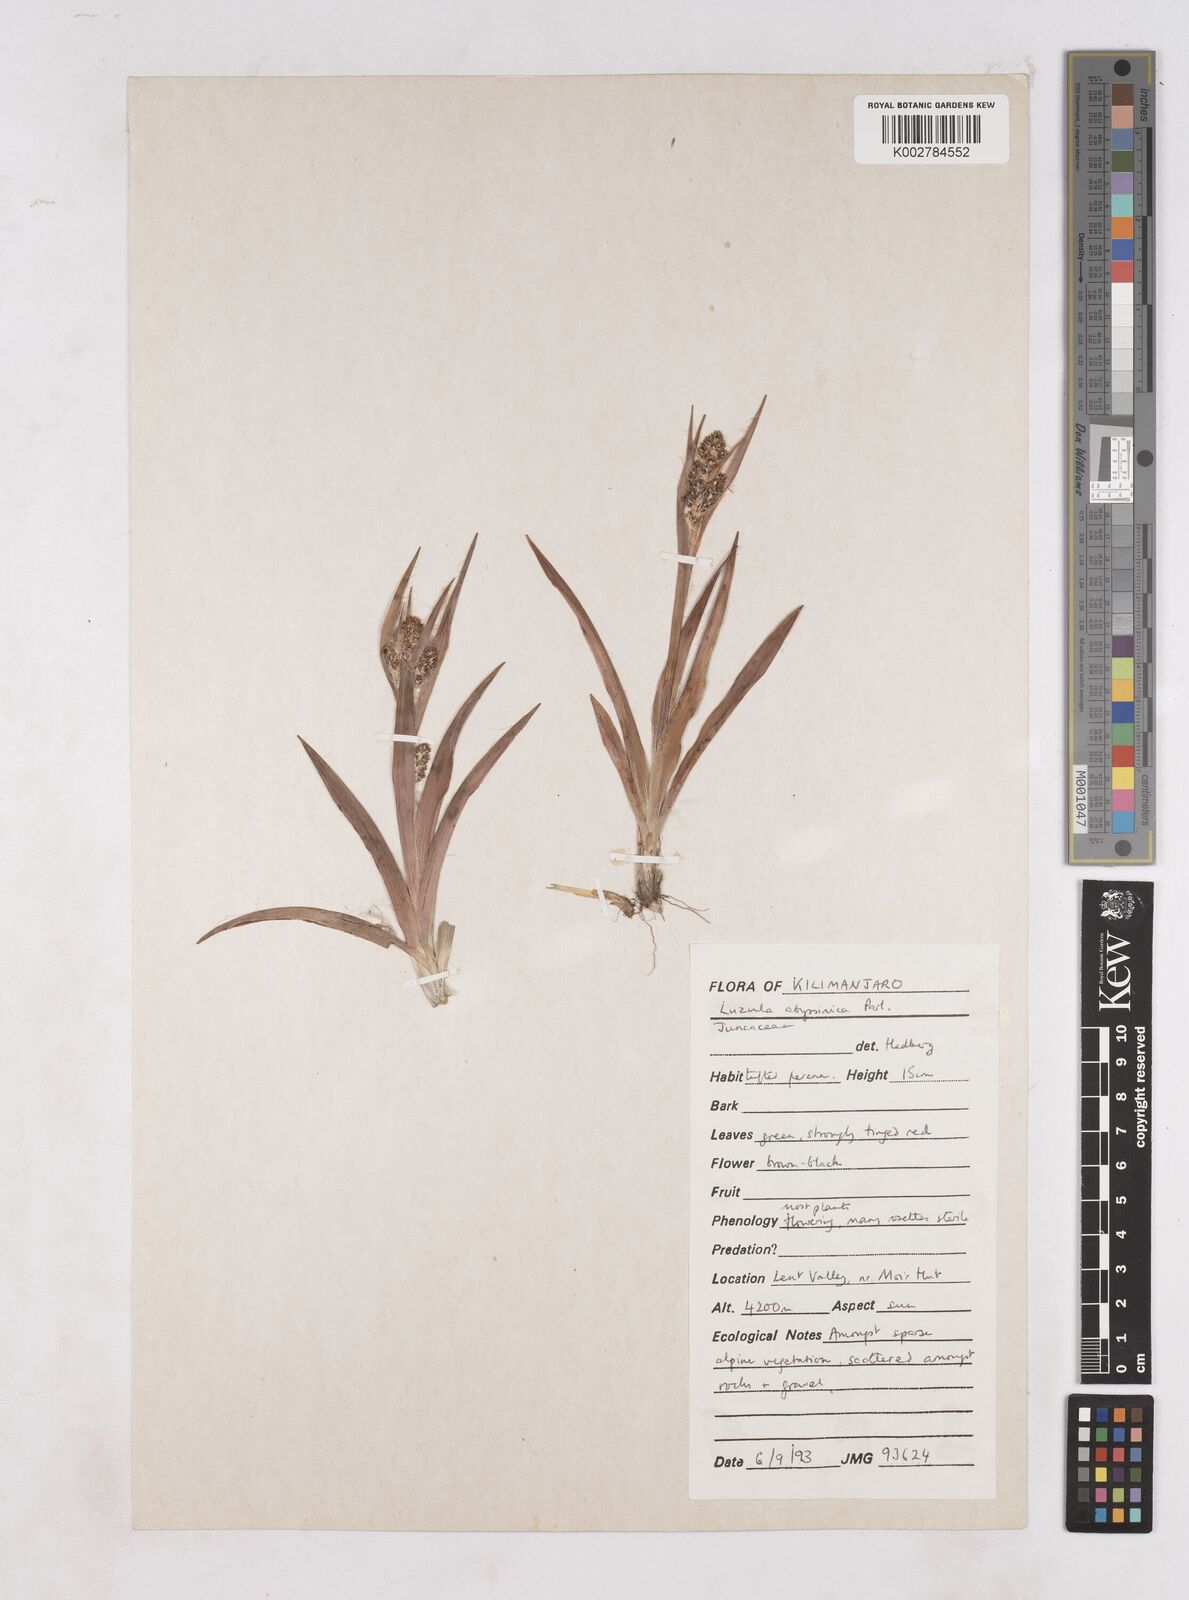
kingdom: Plantae
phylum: Tracheophyta
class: Liliopsida
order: Poales
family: Juncaceae
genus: Luzula
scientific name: Luzula abyssinica
